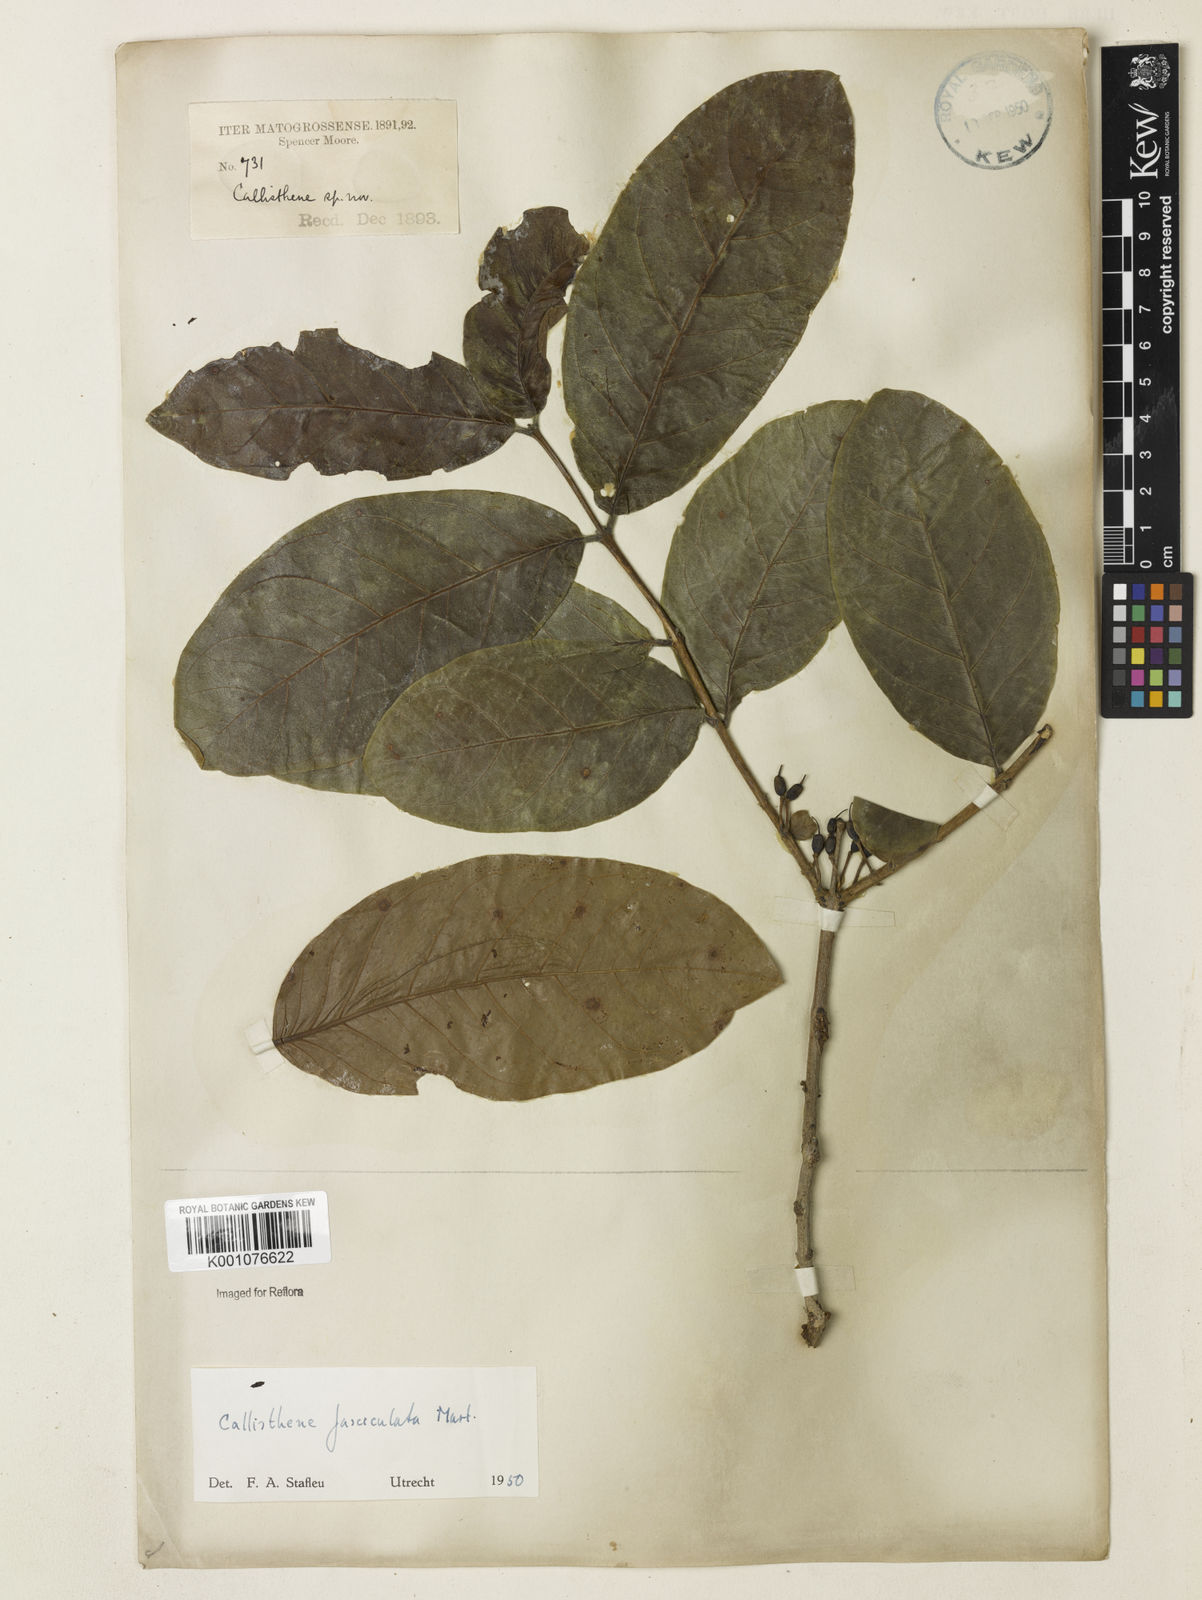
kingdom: Plantae
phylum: Tracheophyta
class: Magnoliopsida
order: Myrtales
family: Vochysiaceae
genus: Callisthene
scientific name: Callisthene fasciculata
